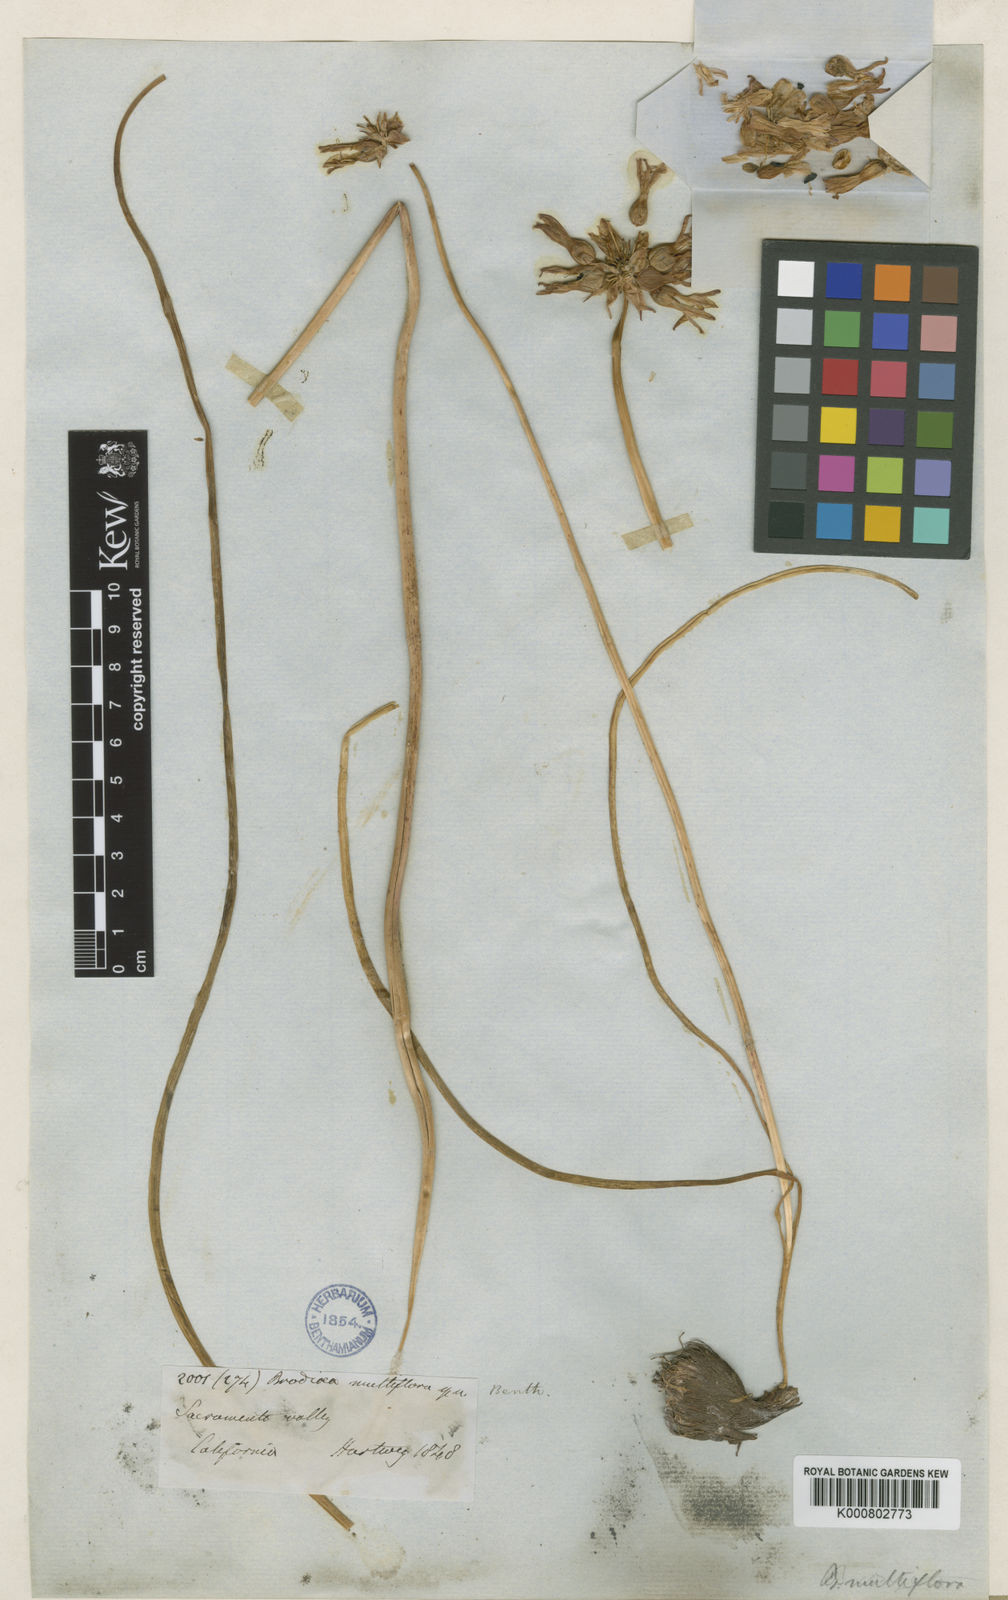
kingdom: Plantae
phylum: Tracheophyta
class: Liliopsida
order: Asparagales
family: Asparagaceae
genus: Dichelostemma
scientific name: Dichelostemma multiflorum
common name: Round-tooth ookow
